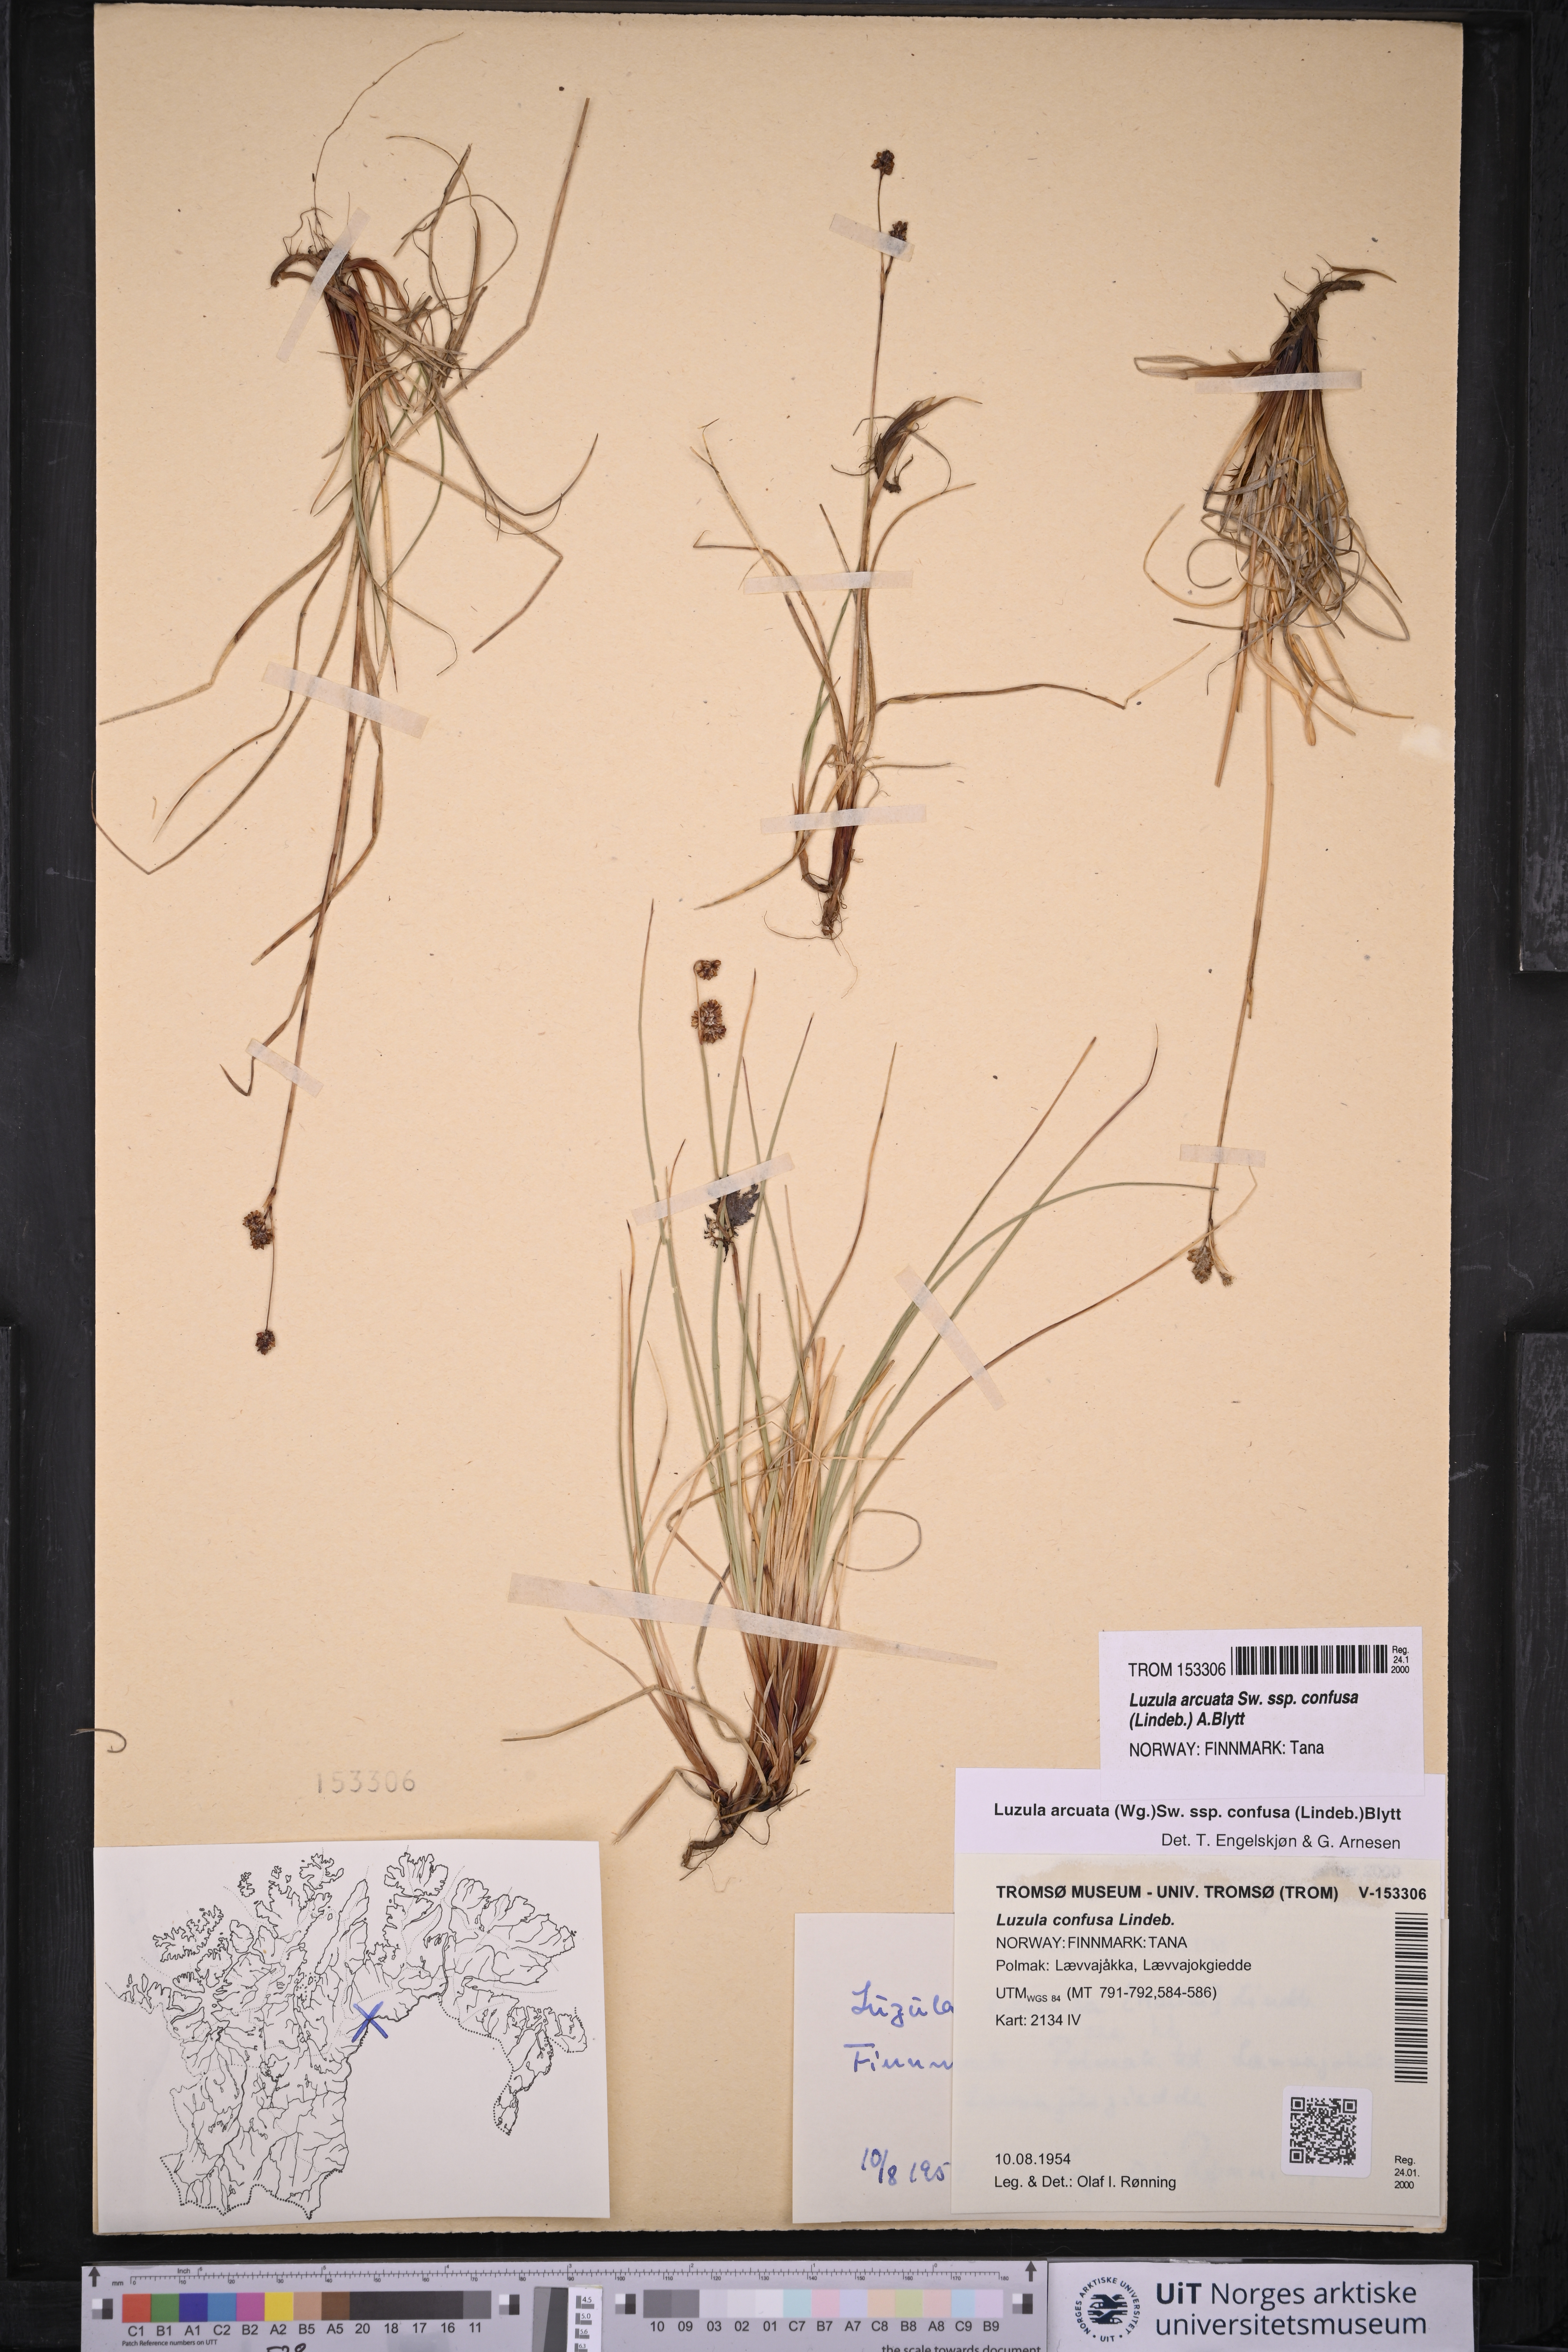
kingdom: Plantae
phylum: Tracheophyta
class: Liliopsida
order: Poales
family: Juncaceae
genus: Luzula
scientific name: Luzula confusa
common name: Northern wood rush
